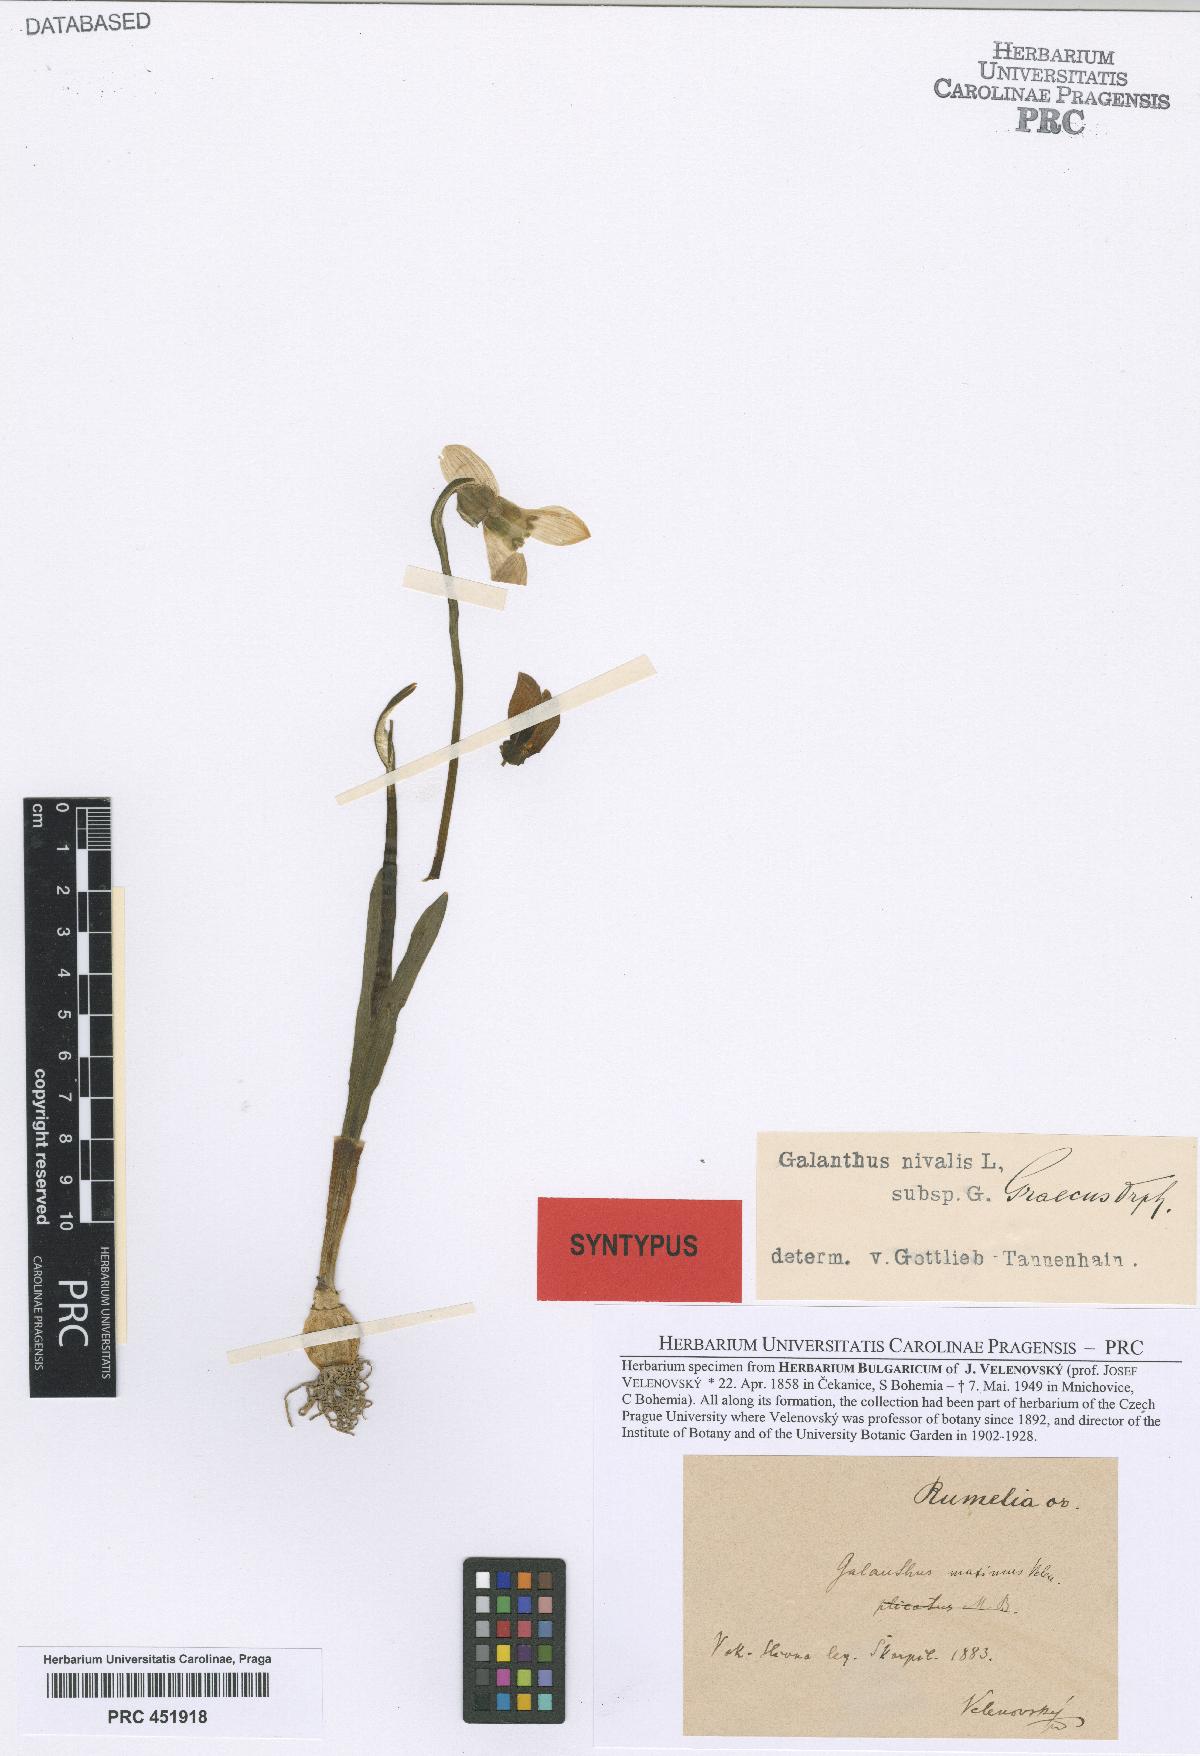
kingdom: Plantae
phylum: Tracheophyta
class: Liliopsida
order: Asparagales
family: Amaryllidaceae
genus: Galanthus
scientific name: Galanthus elwesii
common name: Greater snowdrop
